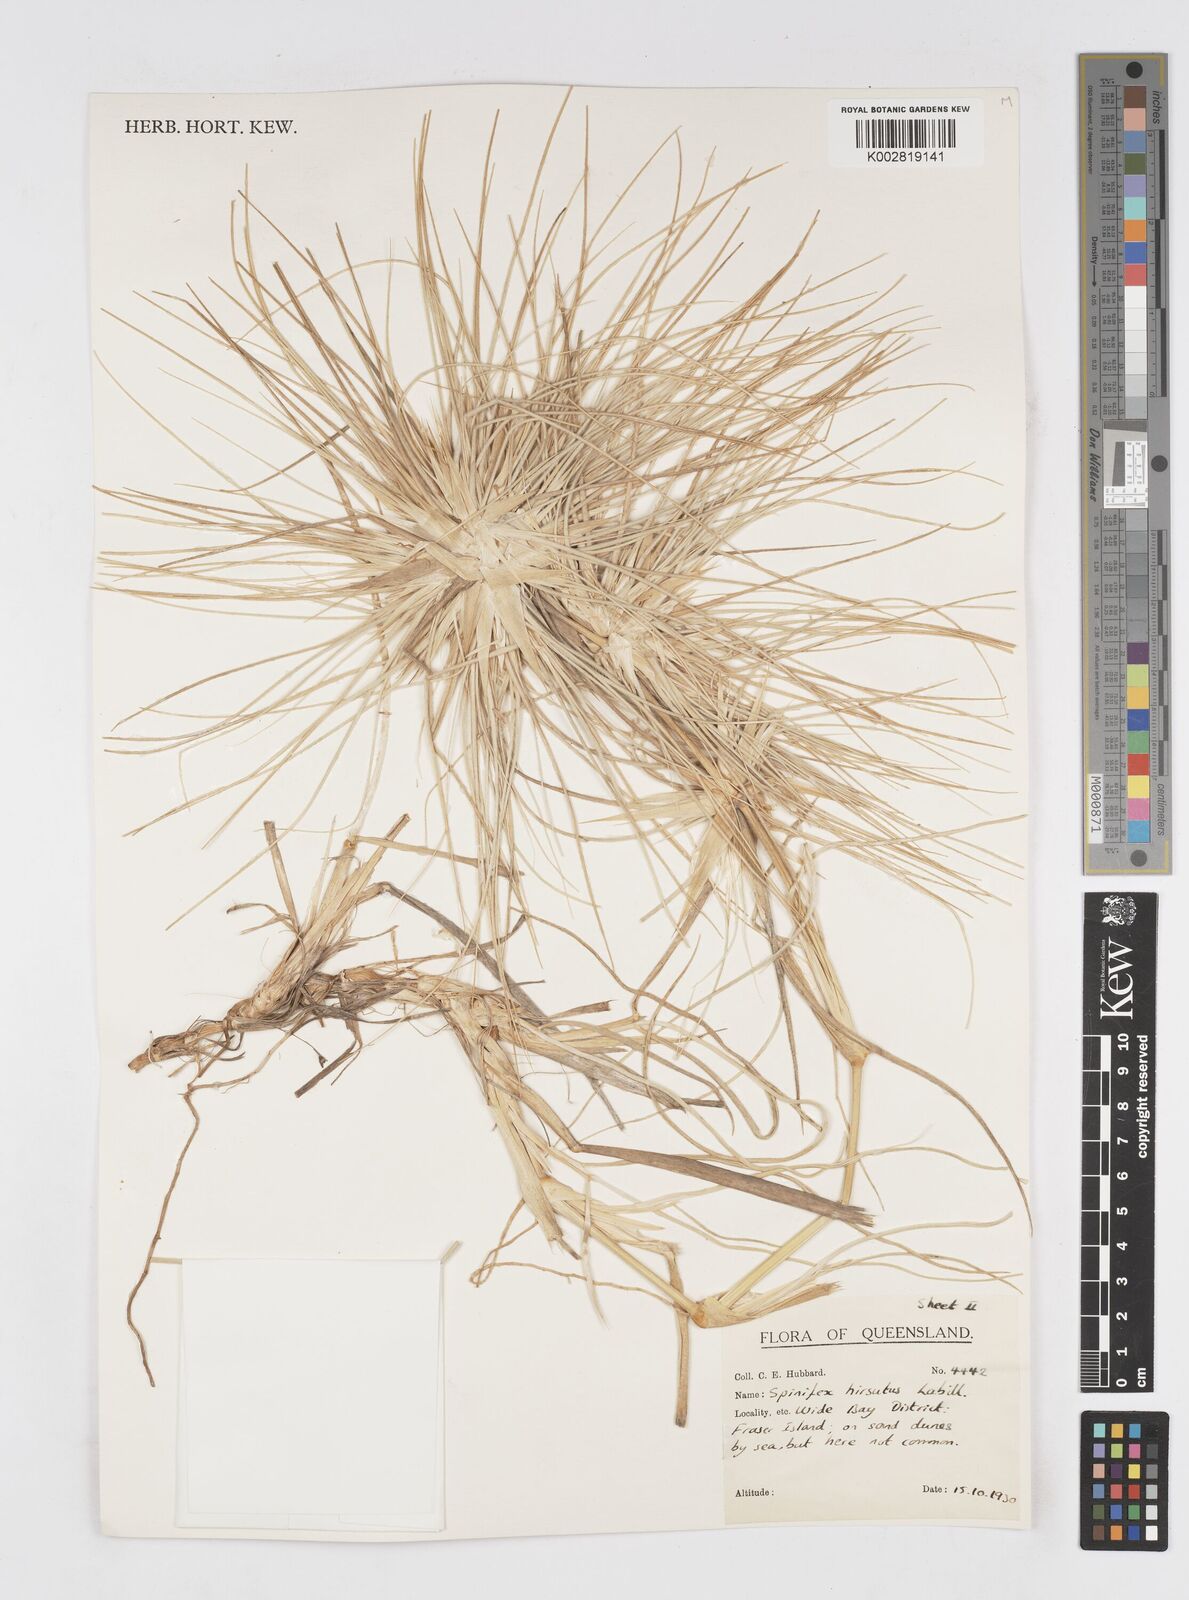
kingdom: Plantae
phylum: Tracheophyta
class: Liliopsida
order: Poales
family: Poaceae
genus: Spinifex
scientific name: Spinifex hirsutus
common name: Hairy spinifex
